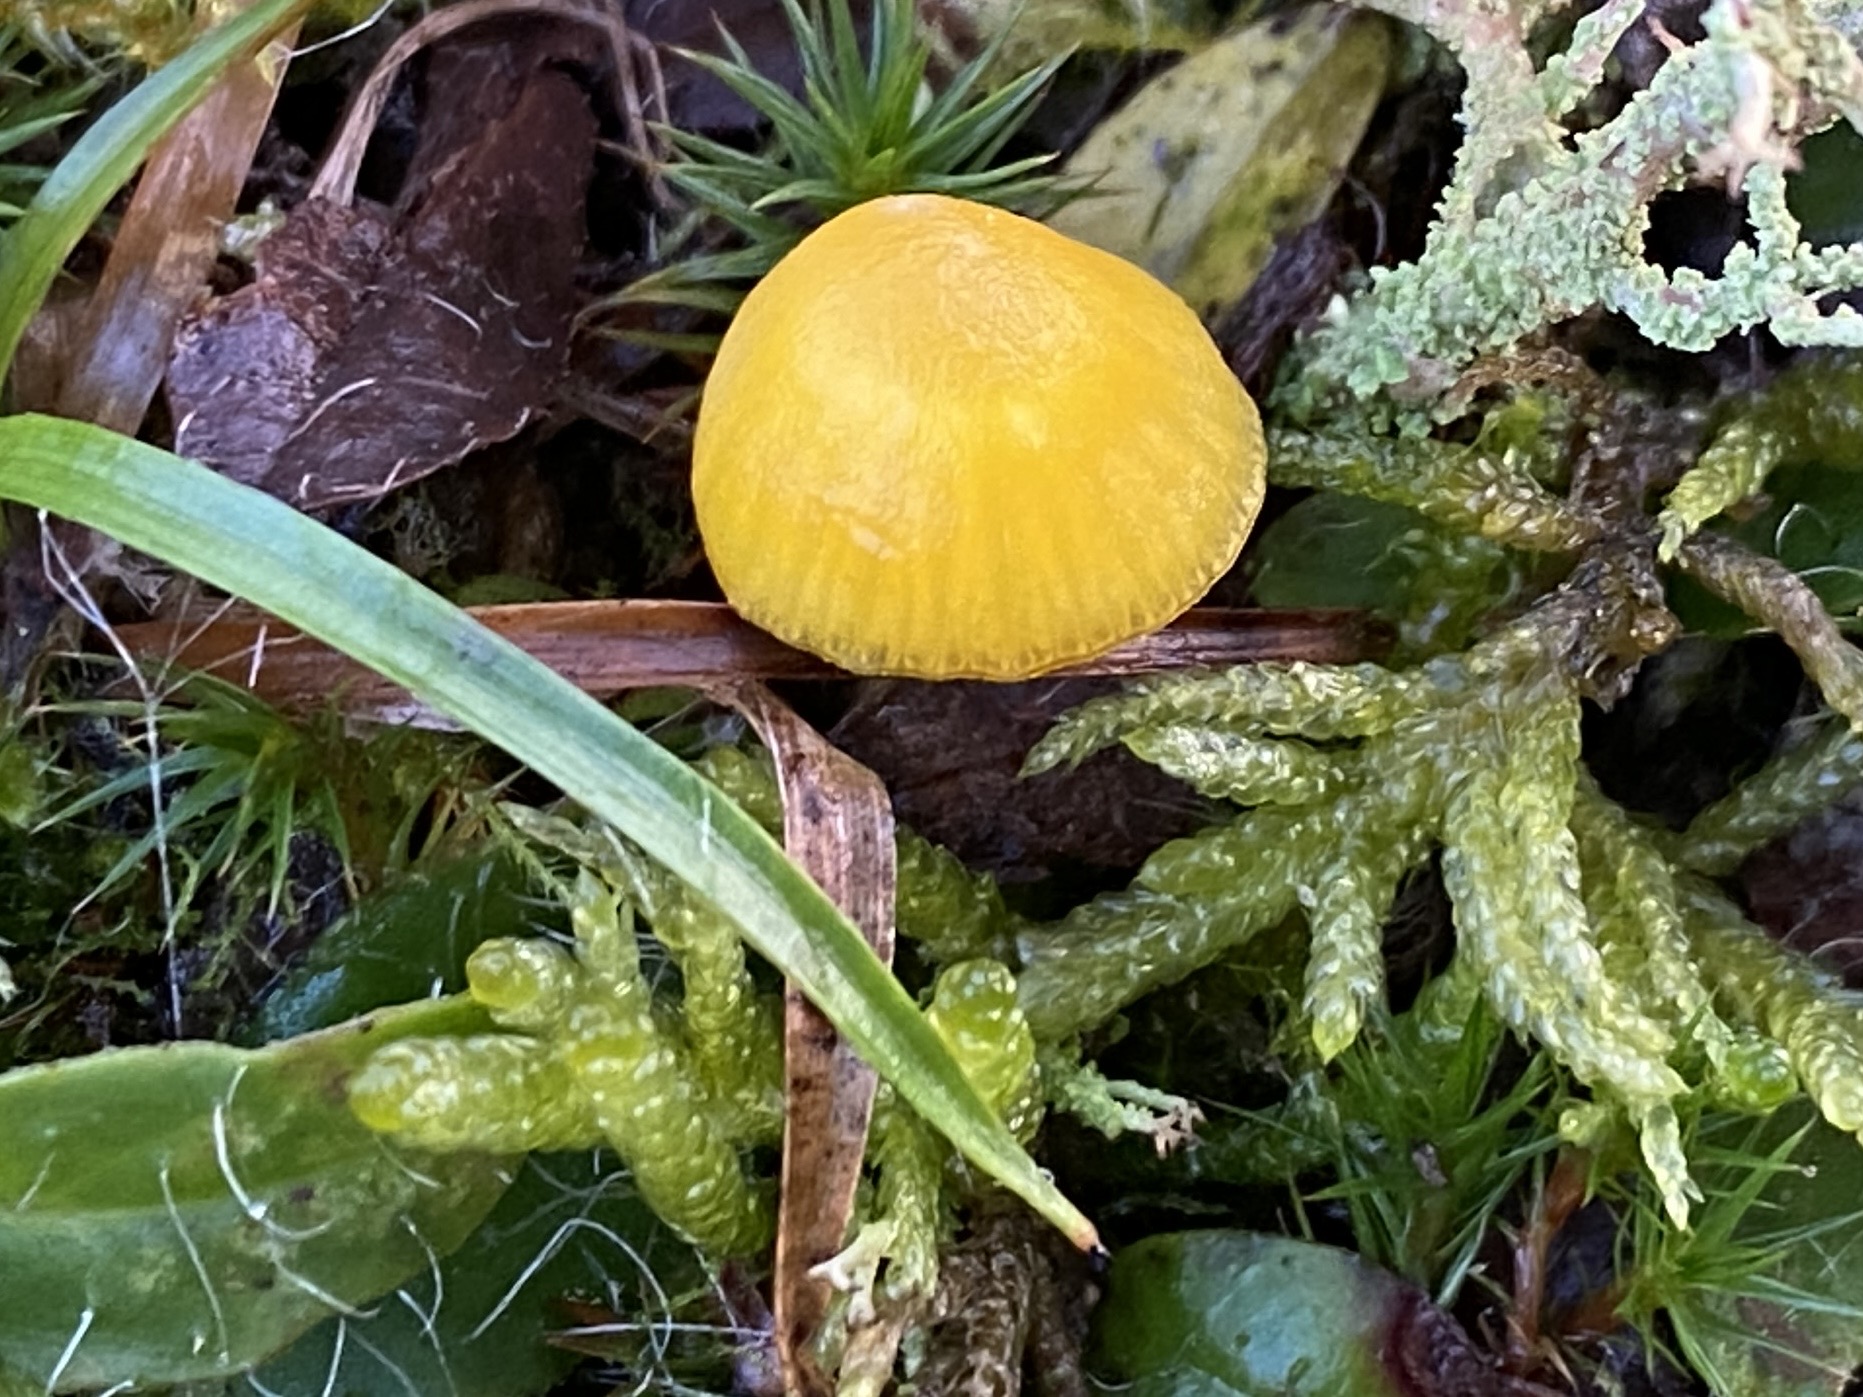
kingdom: Fungi
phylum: Basidiomycota
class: Agaricomycetes
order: Agaricales
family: Hygrophoraceae
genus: Hygrocybe
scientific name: Hygrocybe ceracea
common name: voksgul vokshat
